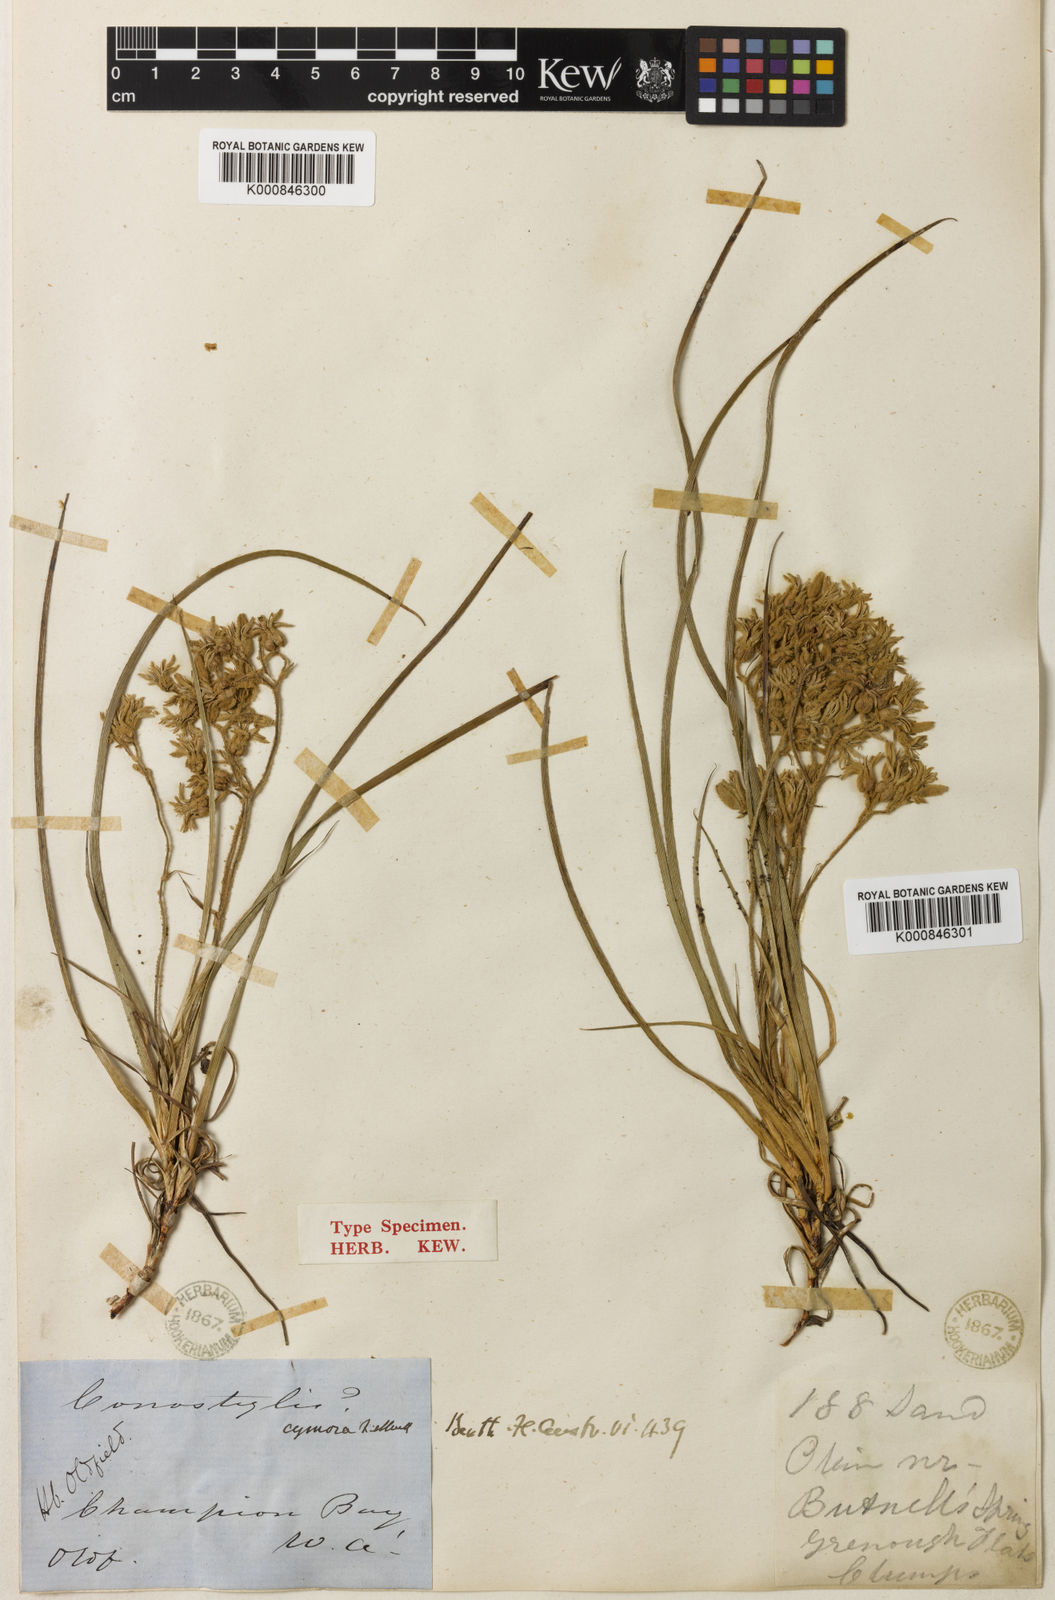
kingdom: Plantae
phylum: Tracheophyta
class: Liliopsida
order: Commelinales
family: Haemodoraceae
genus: Conostylis
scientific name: Conostylis aculeata
